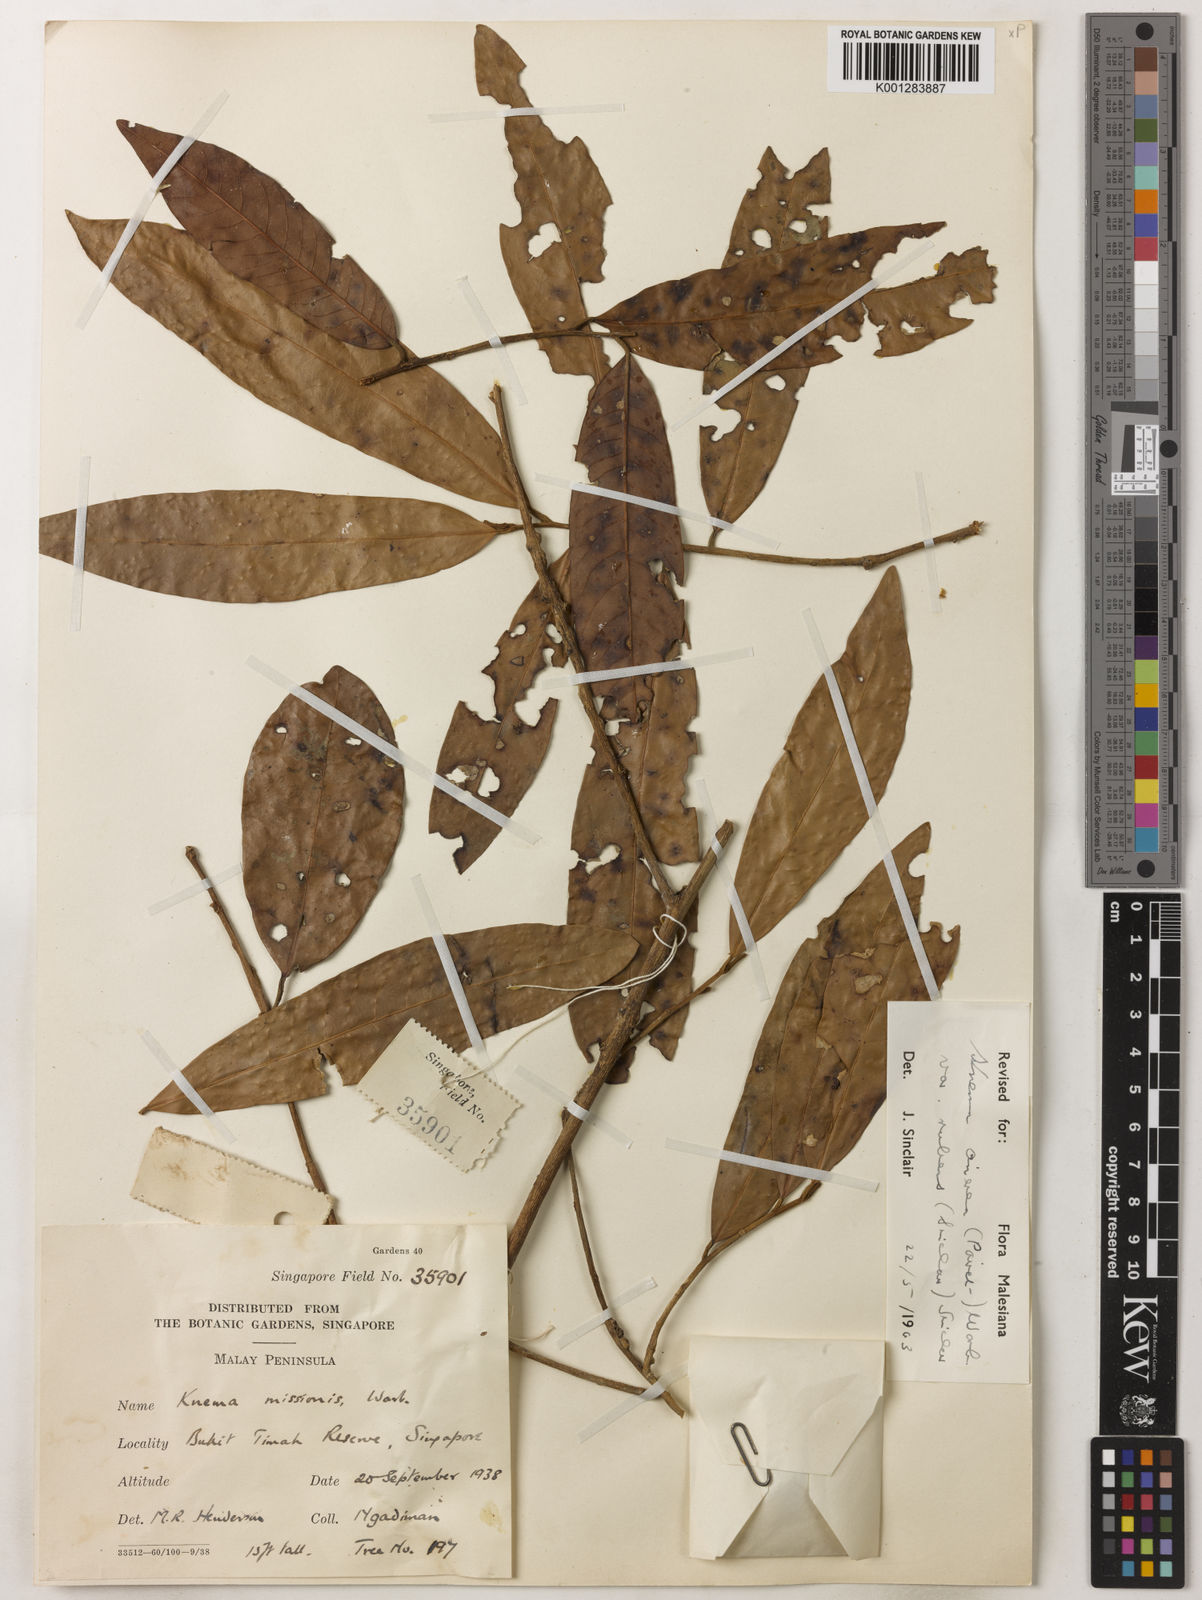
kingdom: Plantae
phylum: Tracheophyta
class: Magnoliopsida
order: Magnoliales
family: Myristicaceae
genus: Knema
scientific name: Knema
